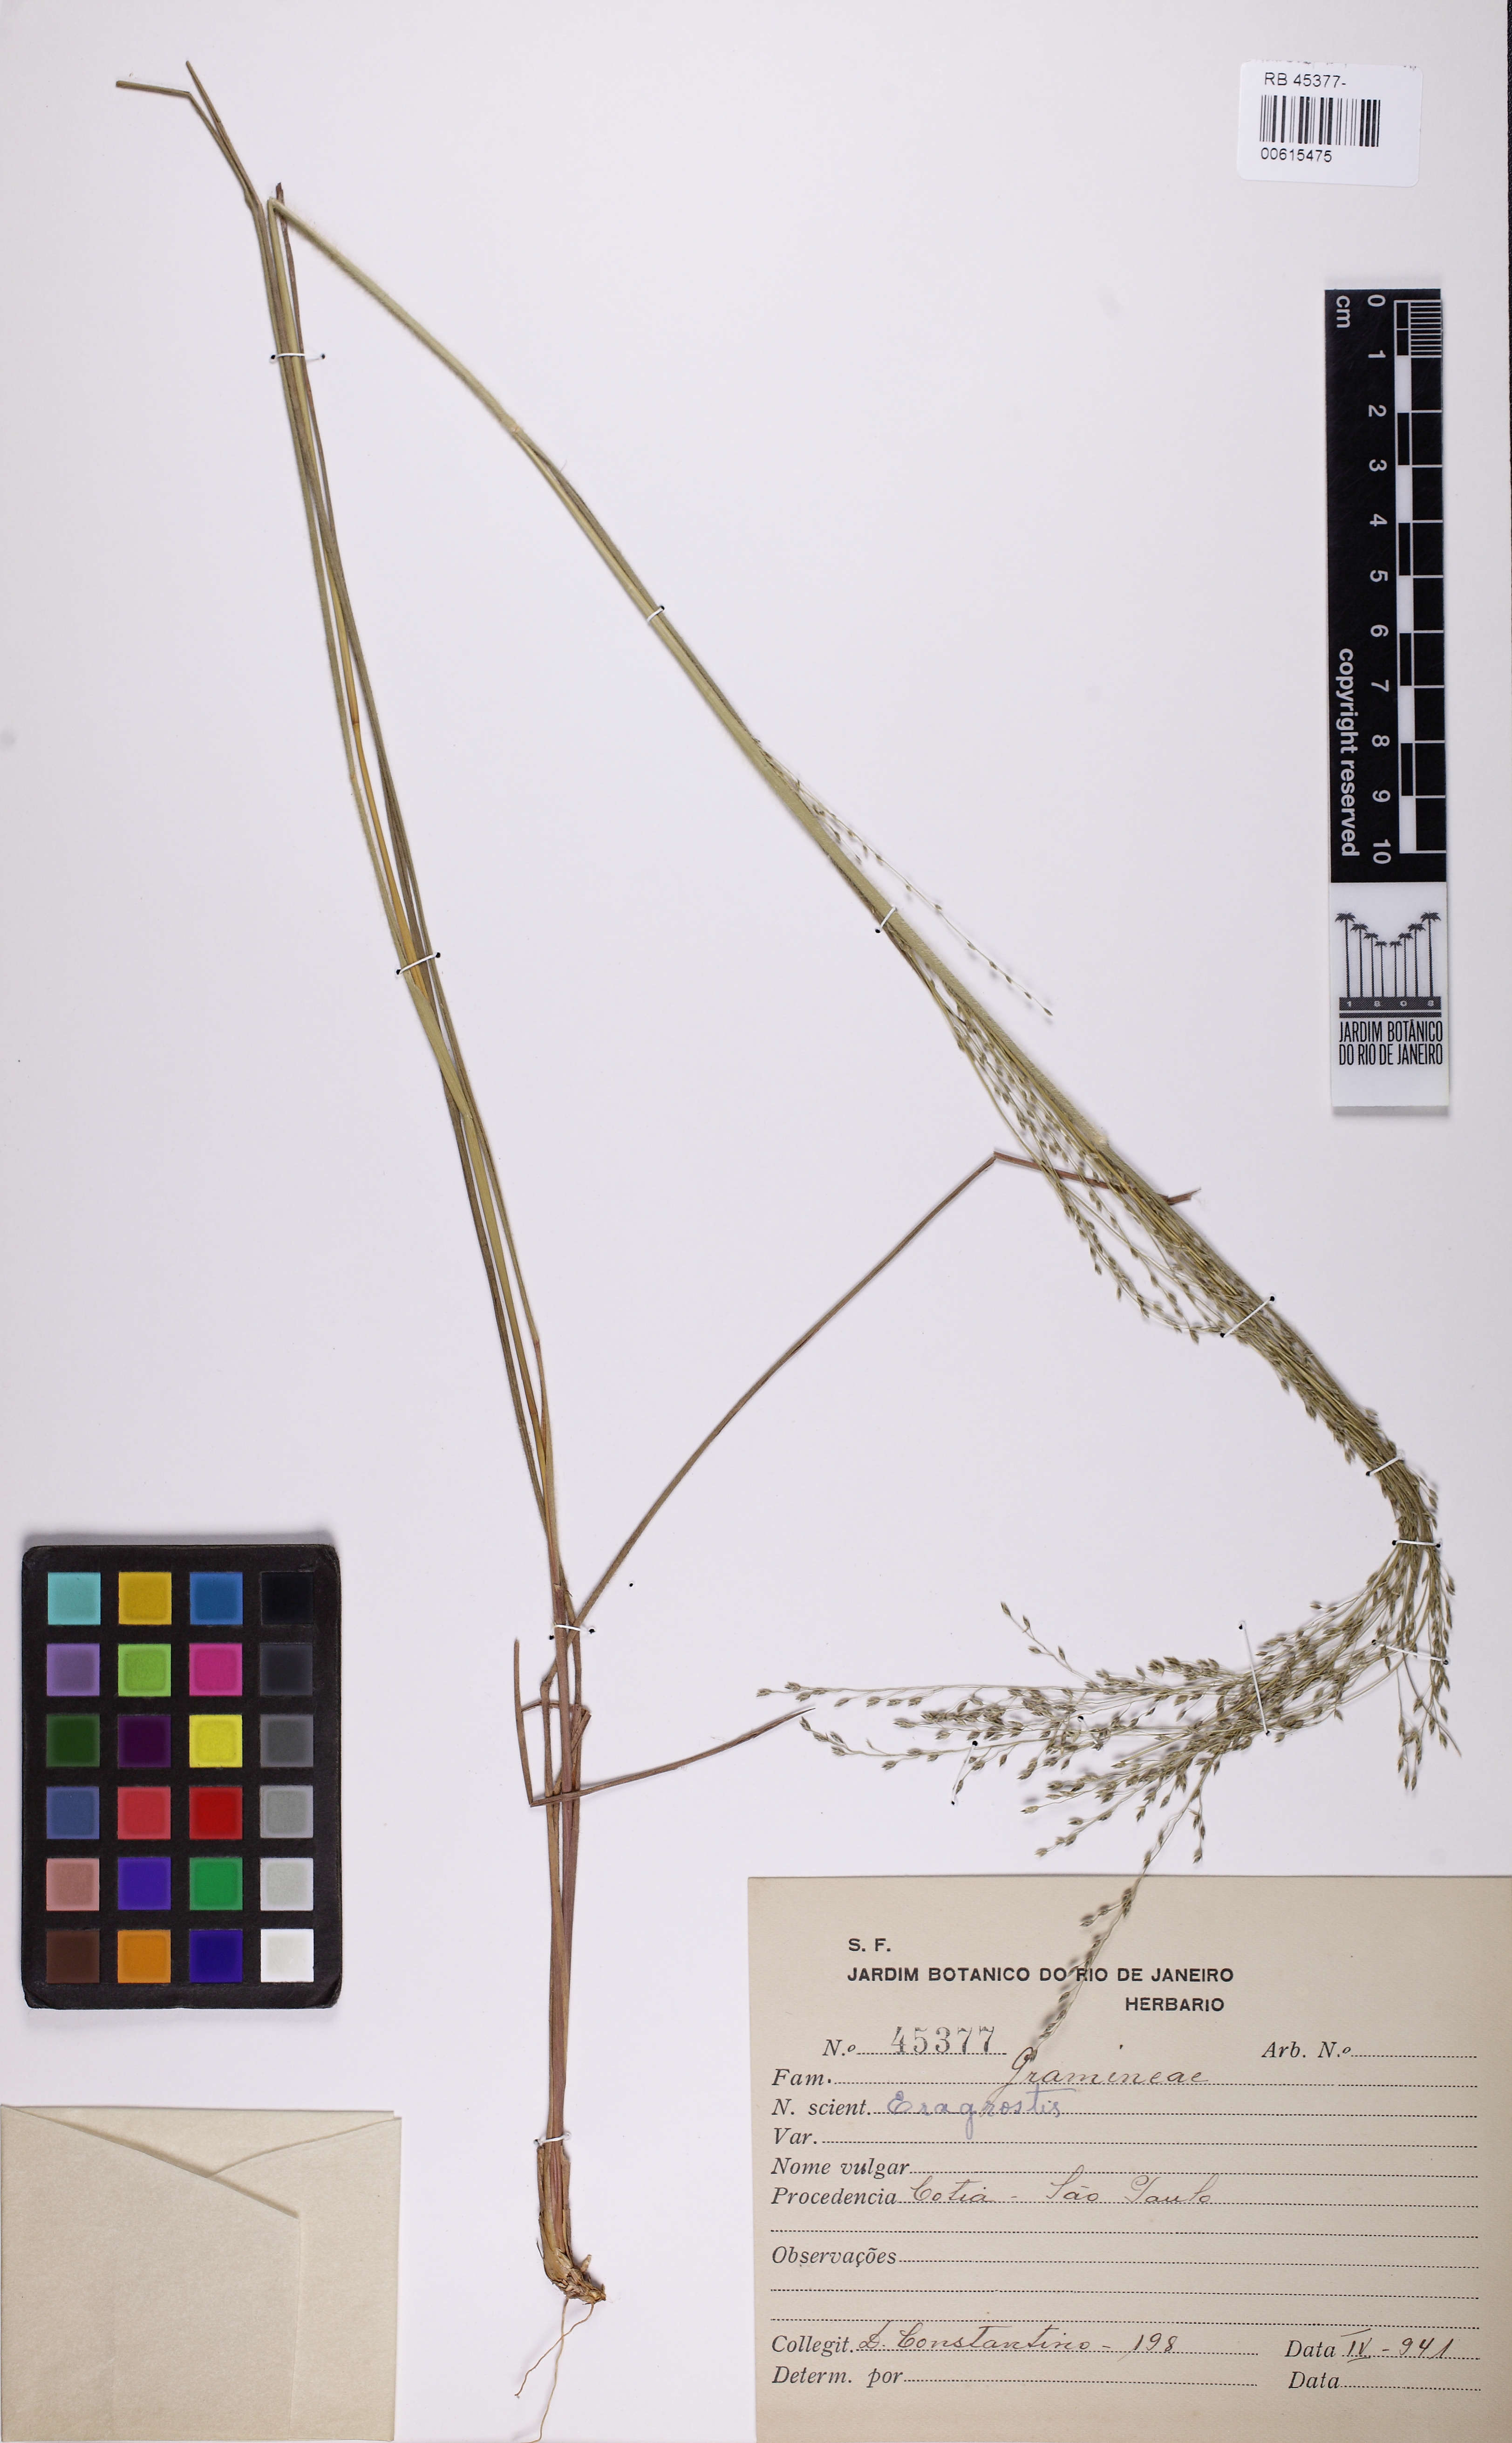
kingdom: Plantae
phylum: Tracheophyta
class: Liliopsida
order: Poales
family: Poaceae
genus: Eragrostis
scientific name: Eragrostis
